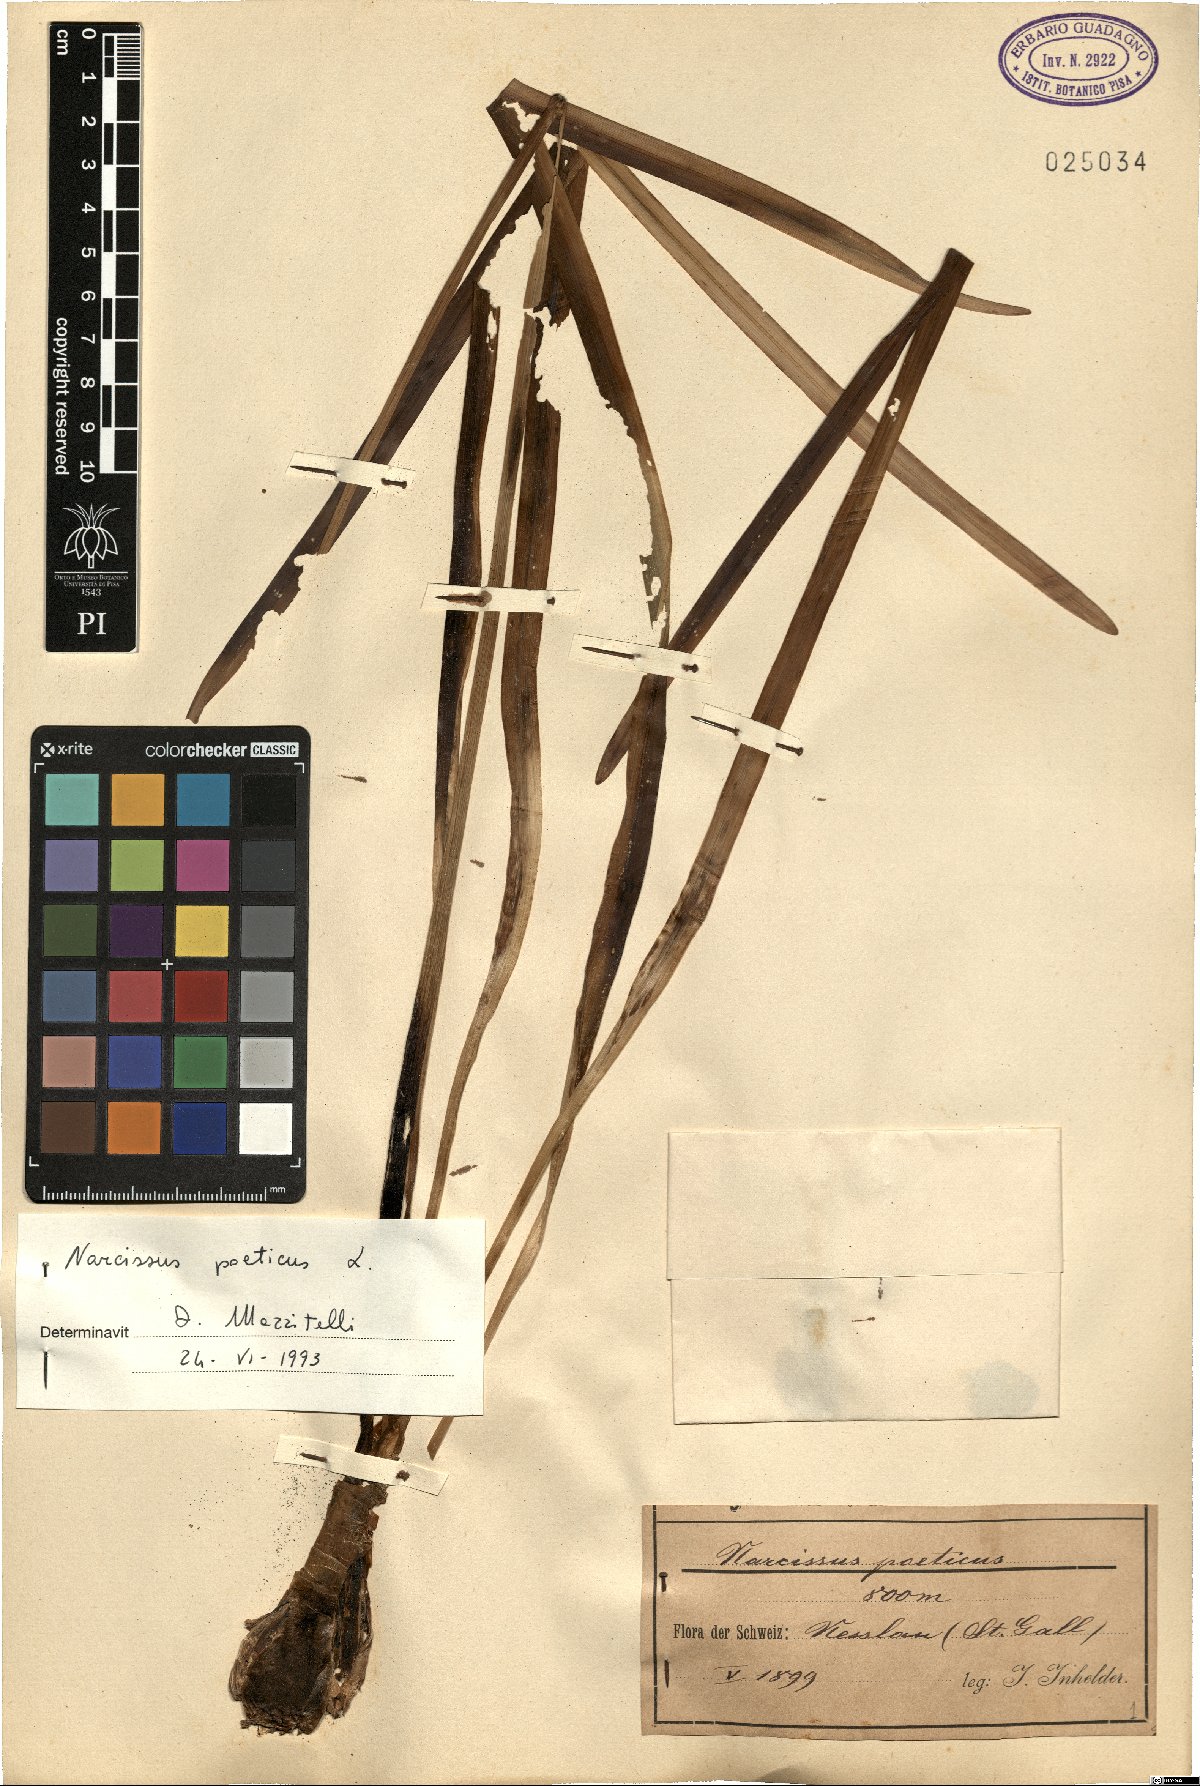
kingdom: Plantae
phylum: Tracheophyta
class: Liliopsida
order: Asparagales
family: Amaryllidaceae
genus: Narcissus
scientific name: Narcissus poeticus
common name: Pheasant's-eye daffodil
